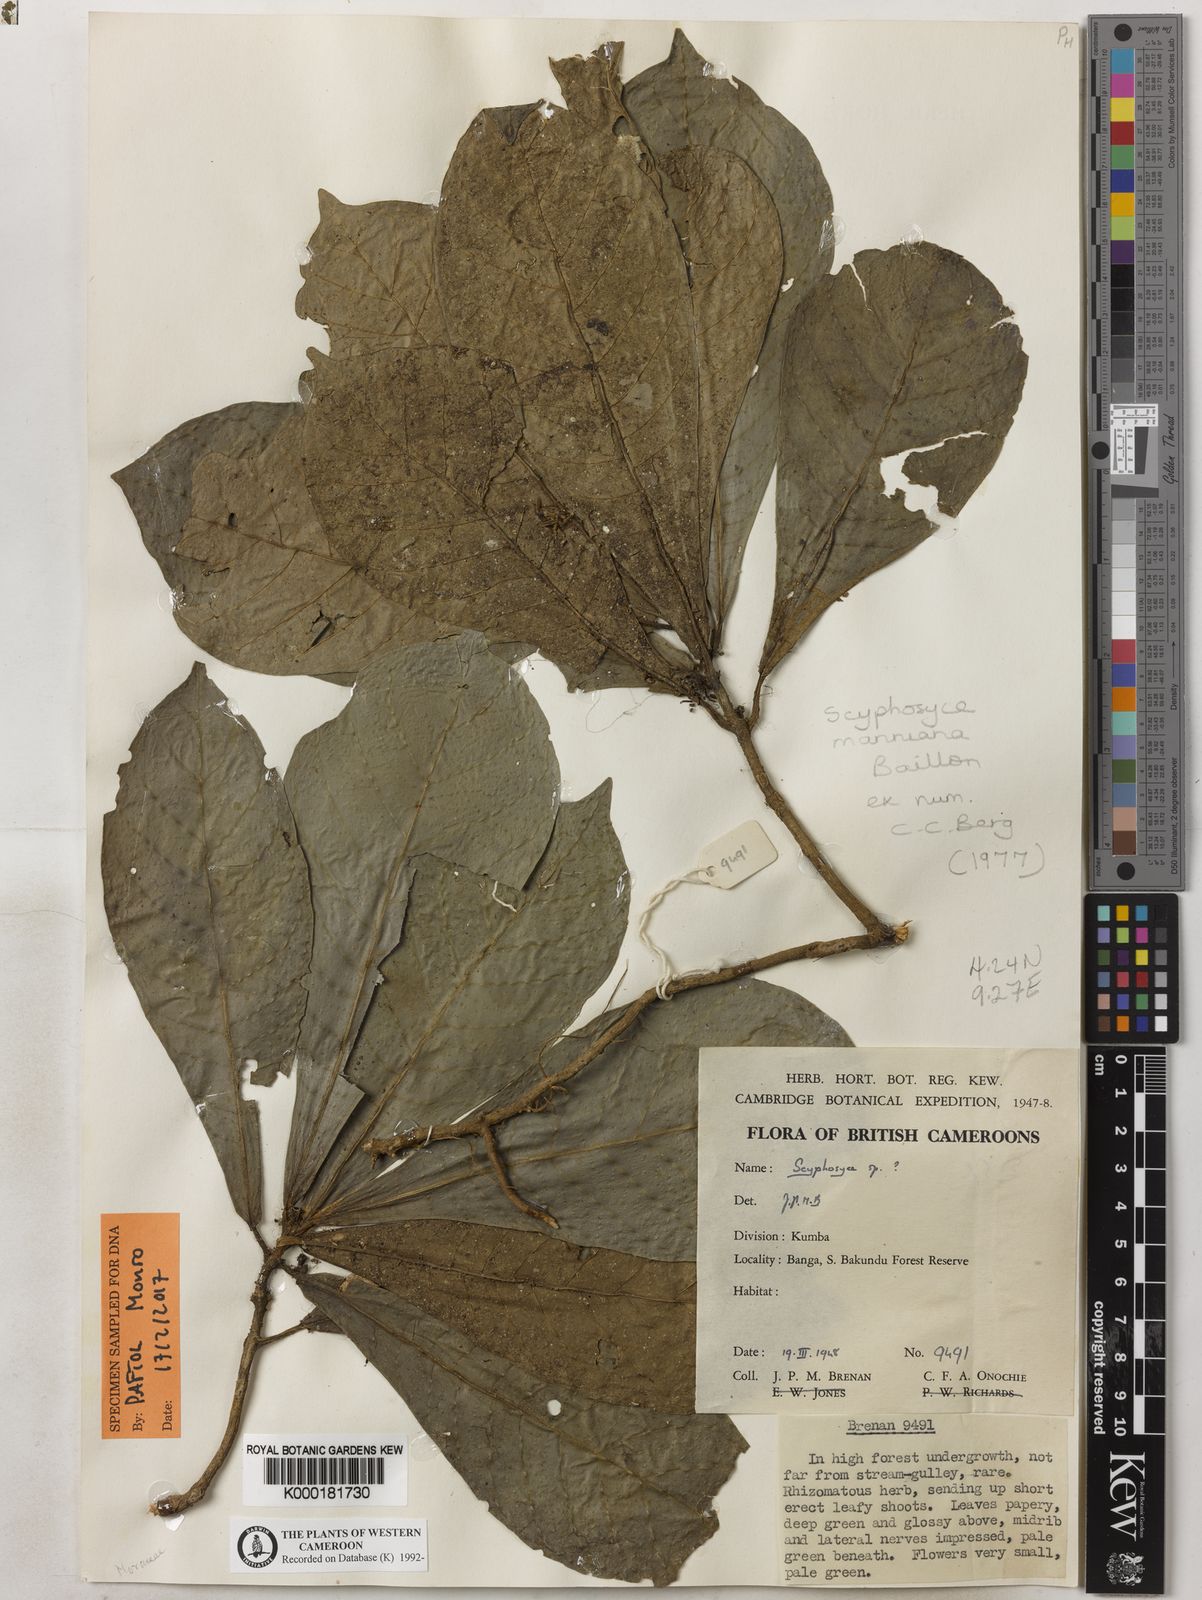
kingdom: Plantae
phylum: Tracheophyta
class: Magnoliopsida
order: Rosales
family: Moraceae
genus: Scyphosyce
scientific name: Scyphosyce manniana
